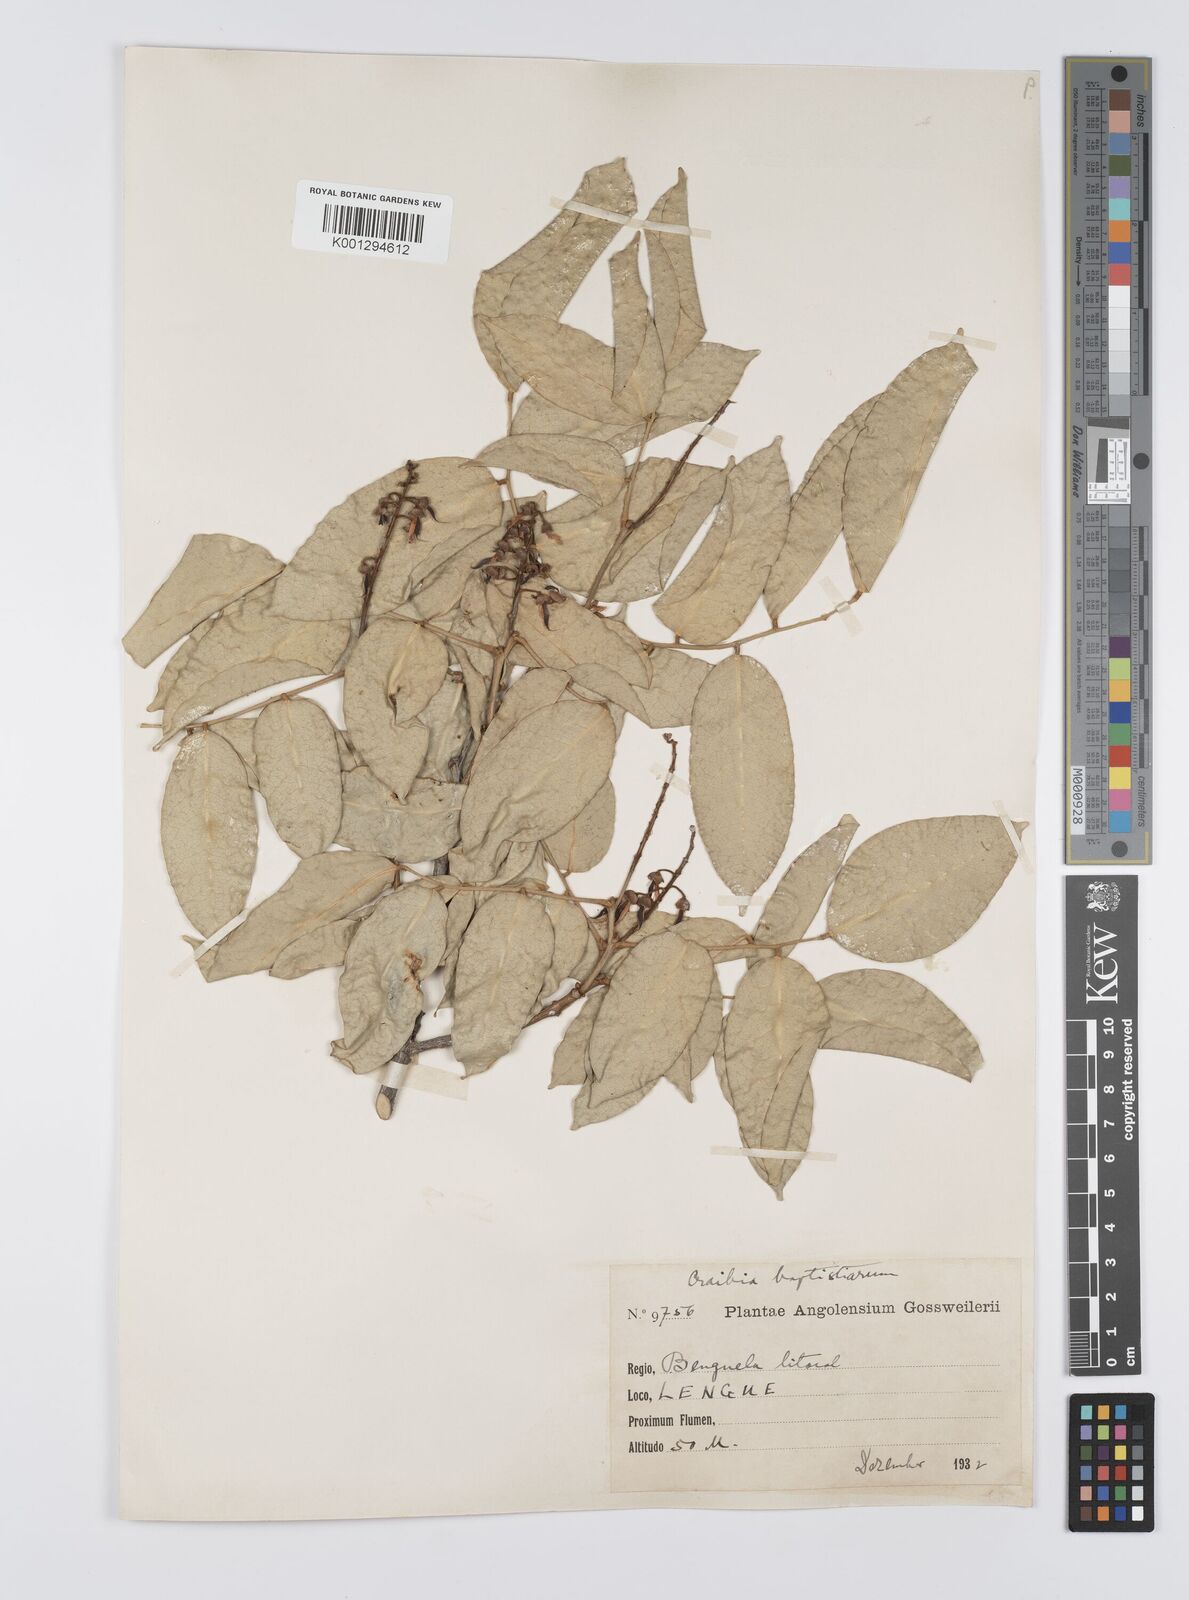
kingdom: Plantae
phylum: Tracheophyta
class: Magnoliopsida
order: Fabales
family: Fabaceae
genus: Craibia
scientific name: Craibia brevicaudata
